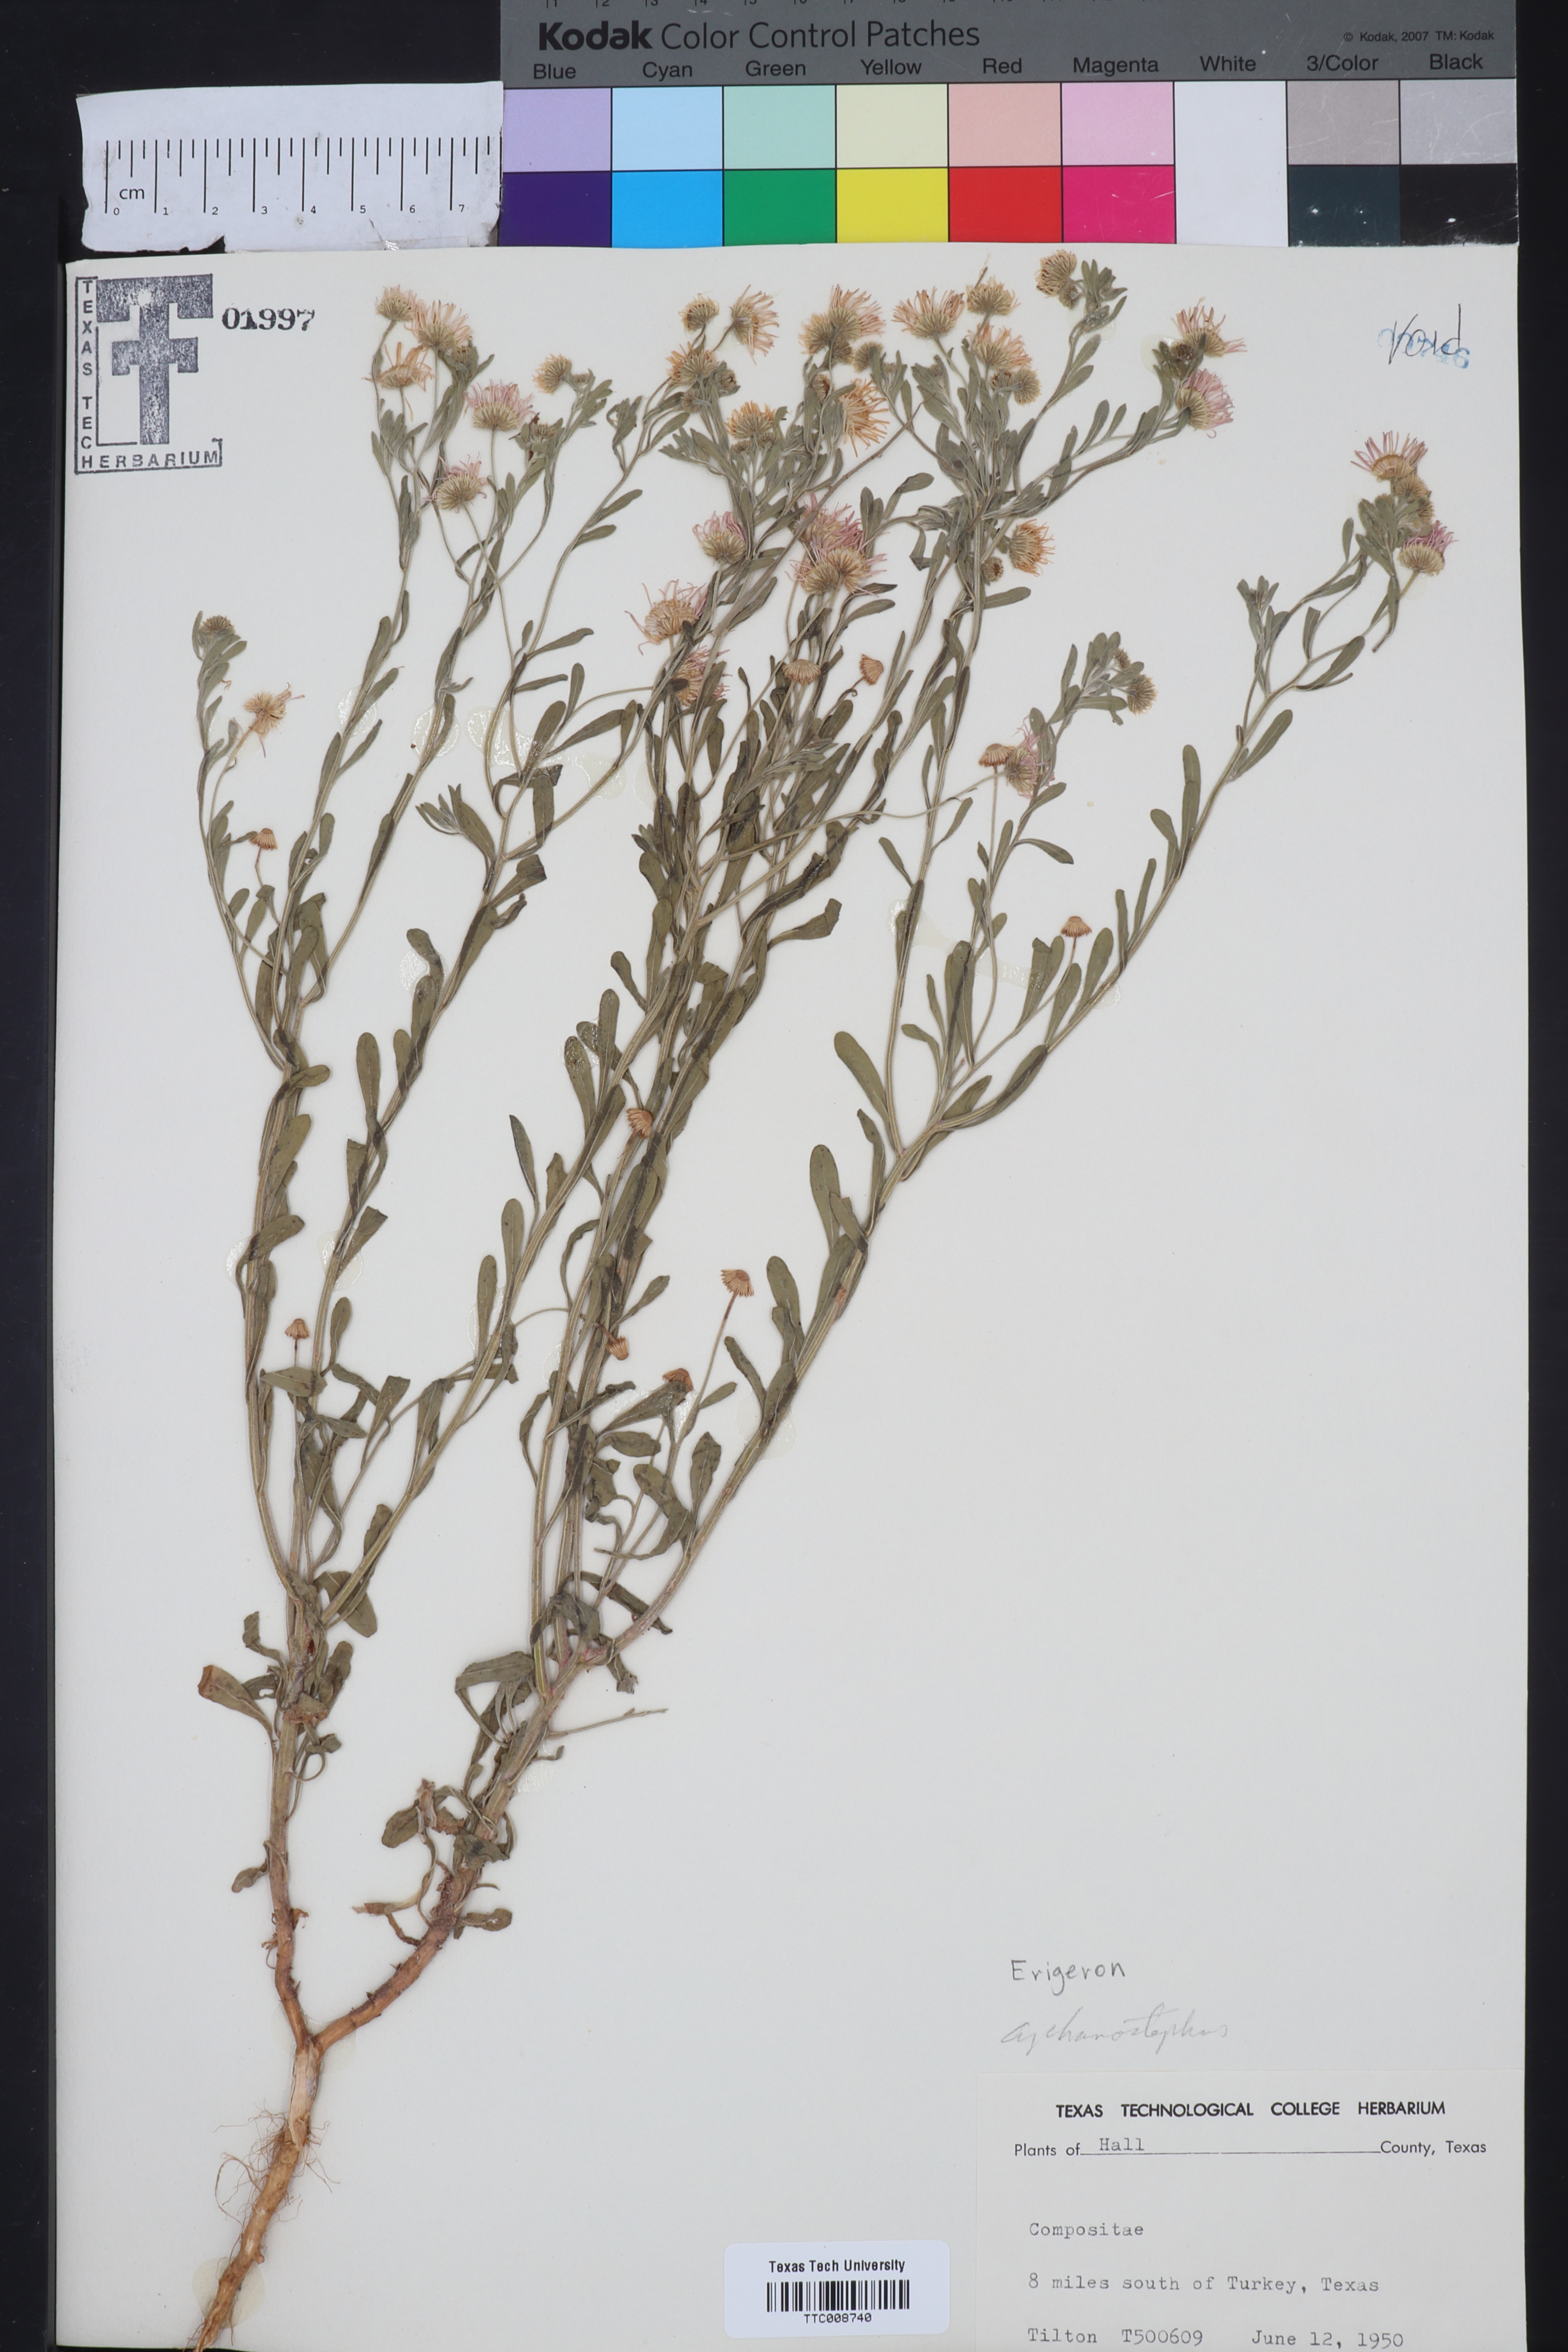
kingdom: Plantae
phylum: Tracheophyta
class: Magnoliopsida
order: Asterales
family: Asteraceae
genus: Erigeron
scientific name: Erigeron
